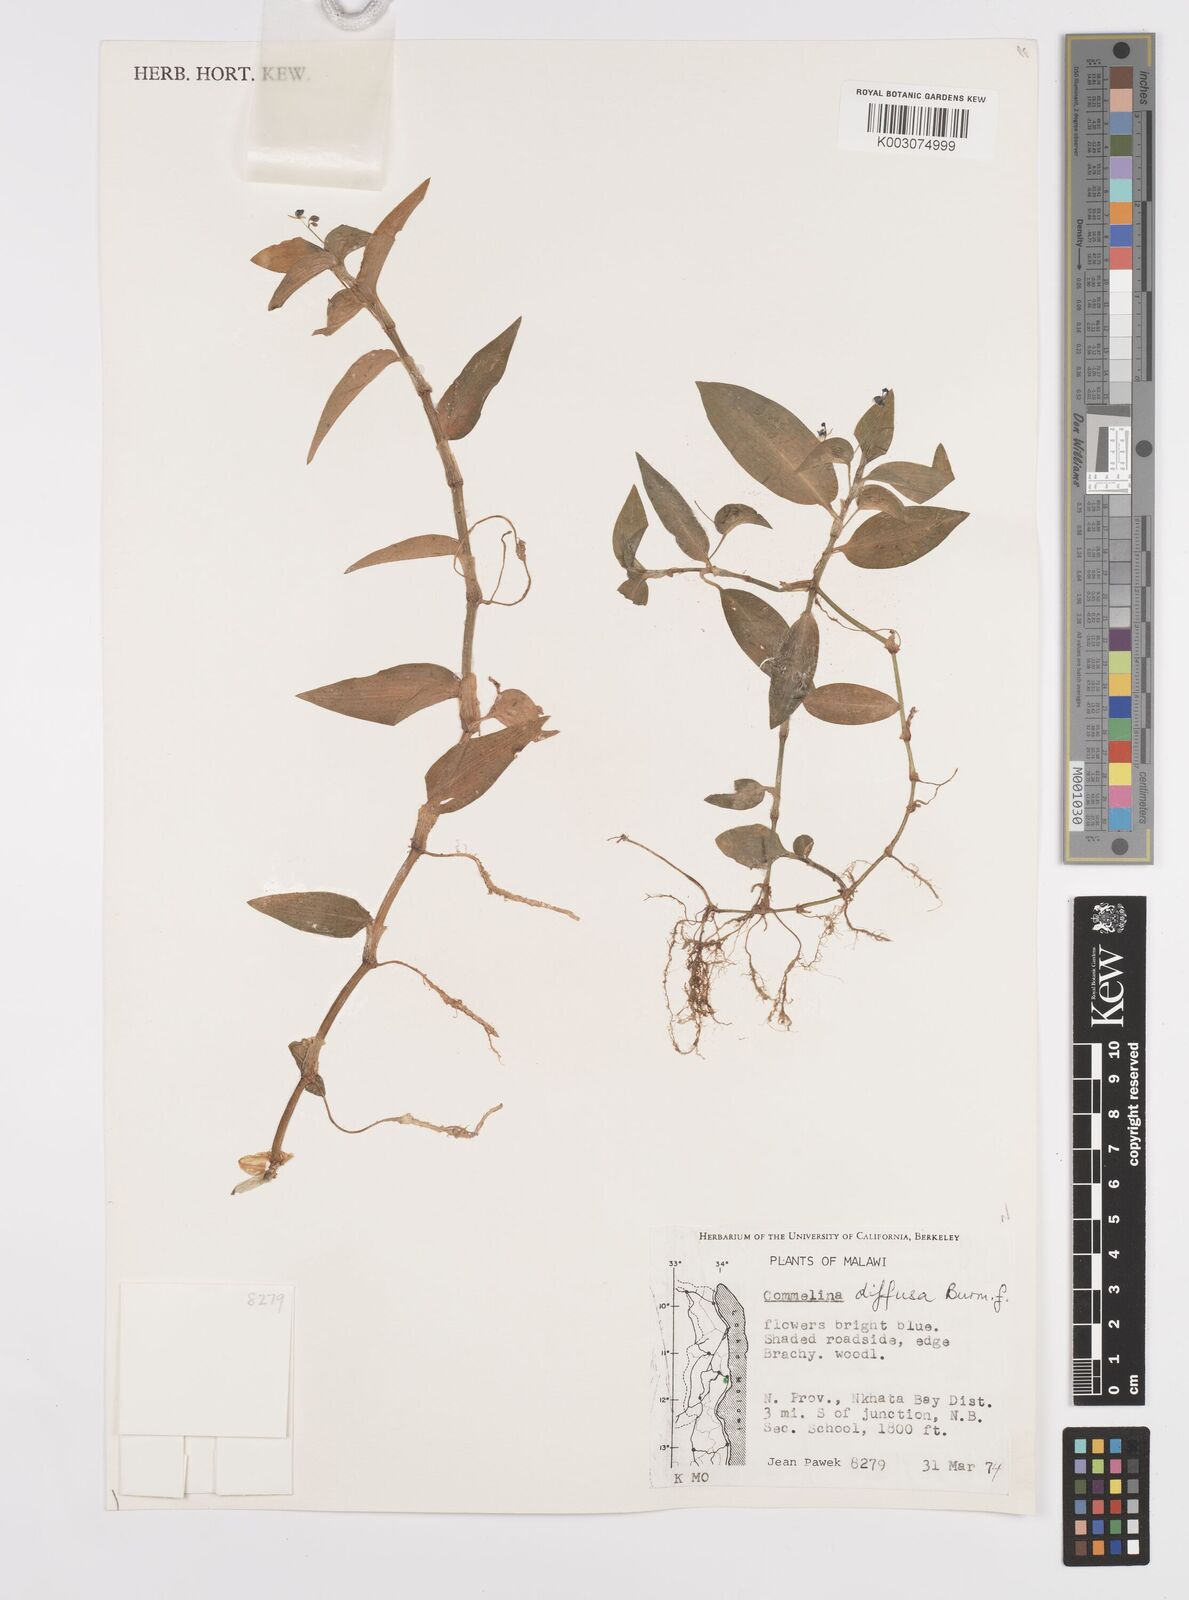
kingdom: Plantae
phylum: Tracheophyta
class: Liliopsida
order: Commelinales
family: Commelinaceae
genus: Commelina
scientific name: Commelina diffusa
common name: Climbing dayflower
